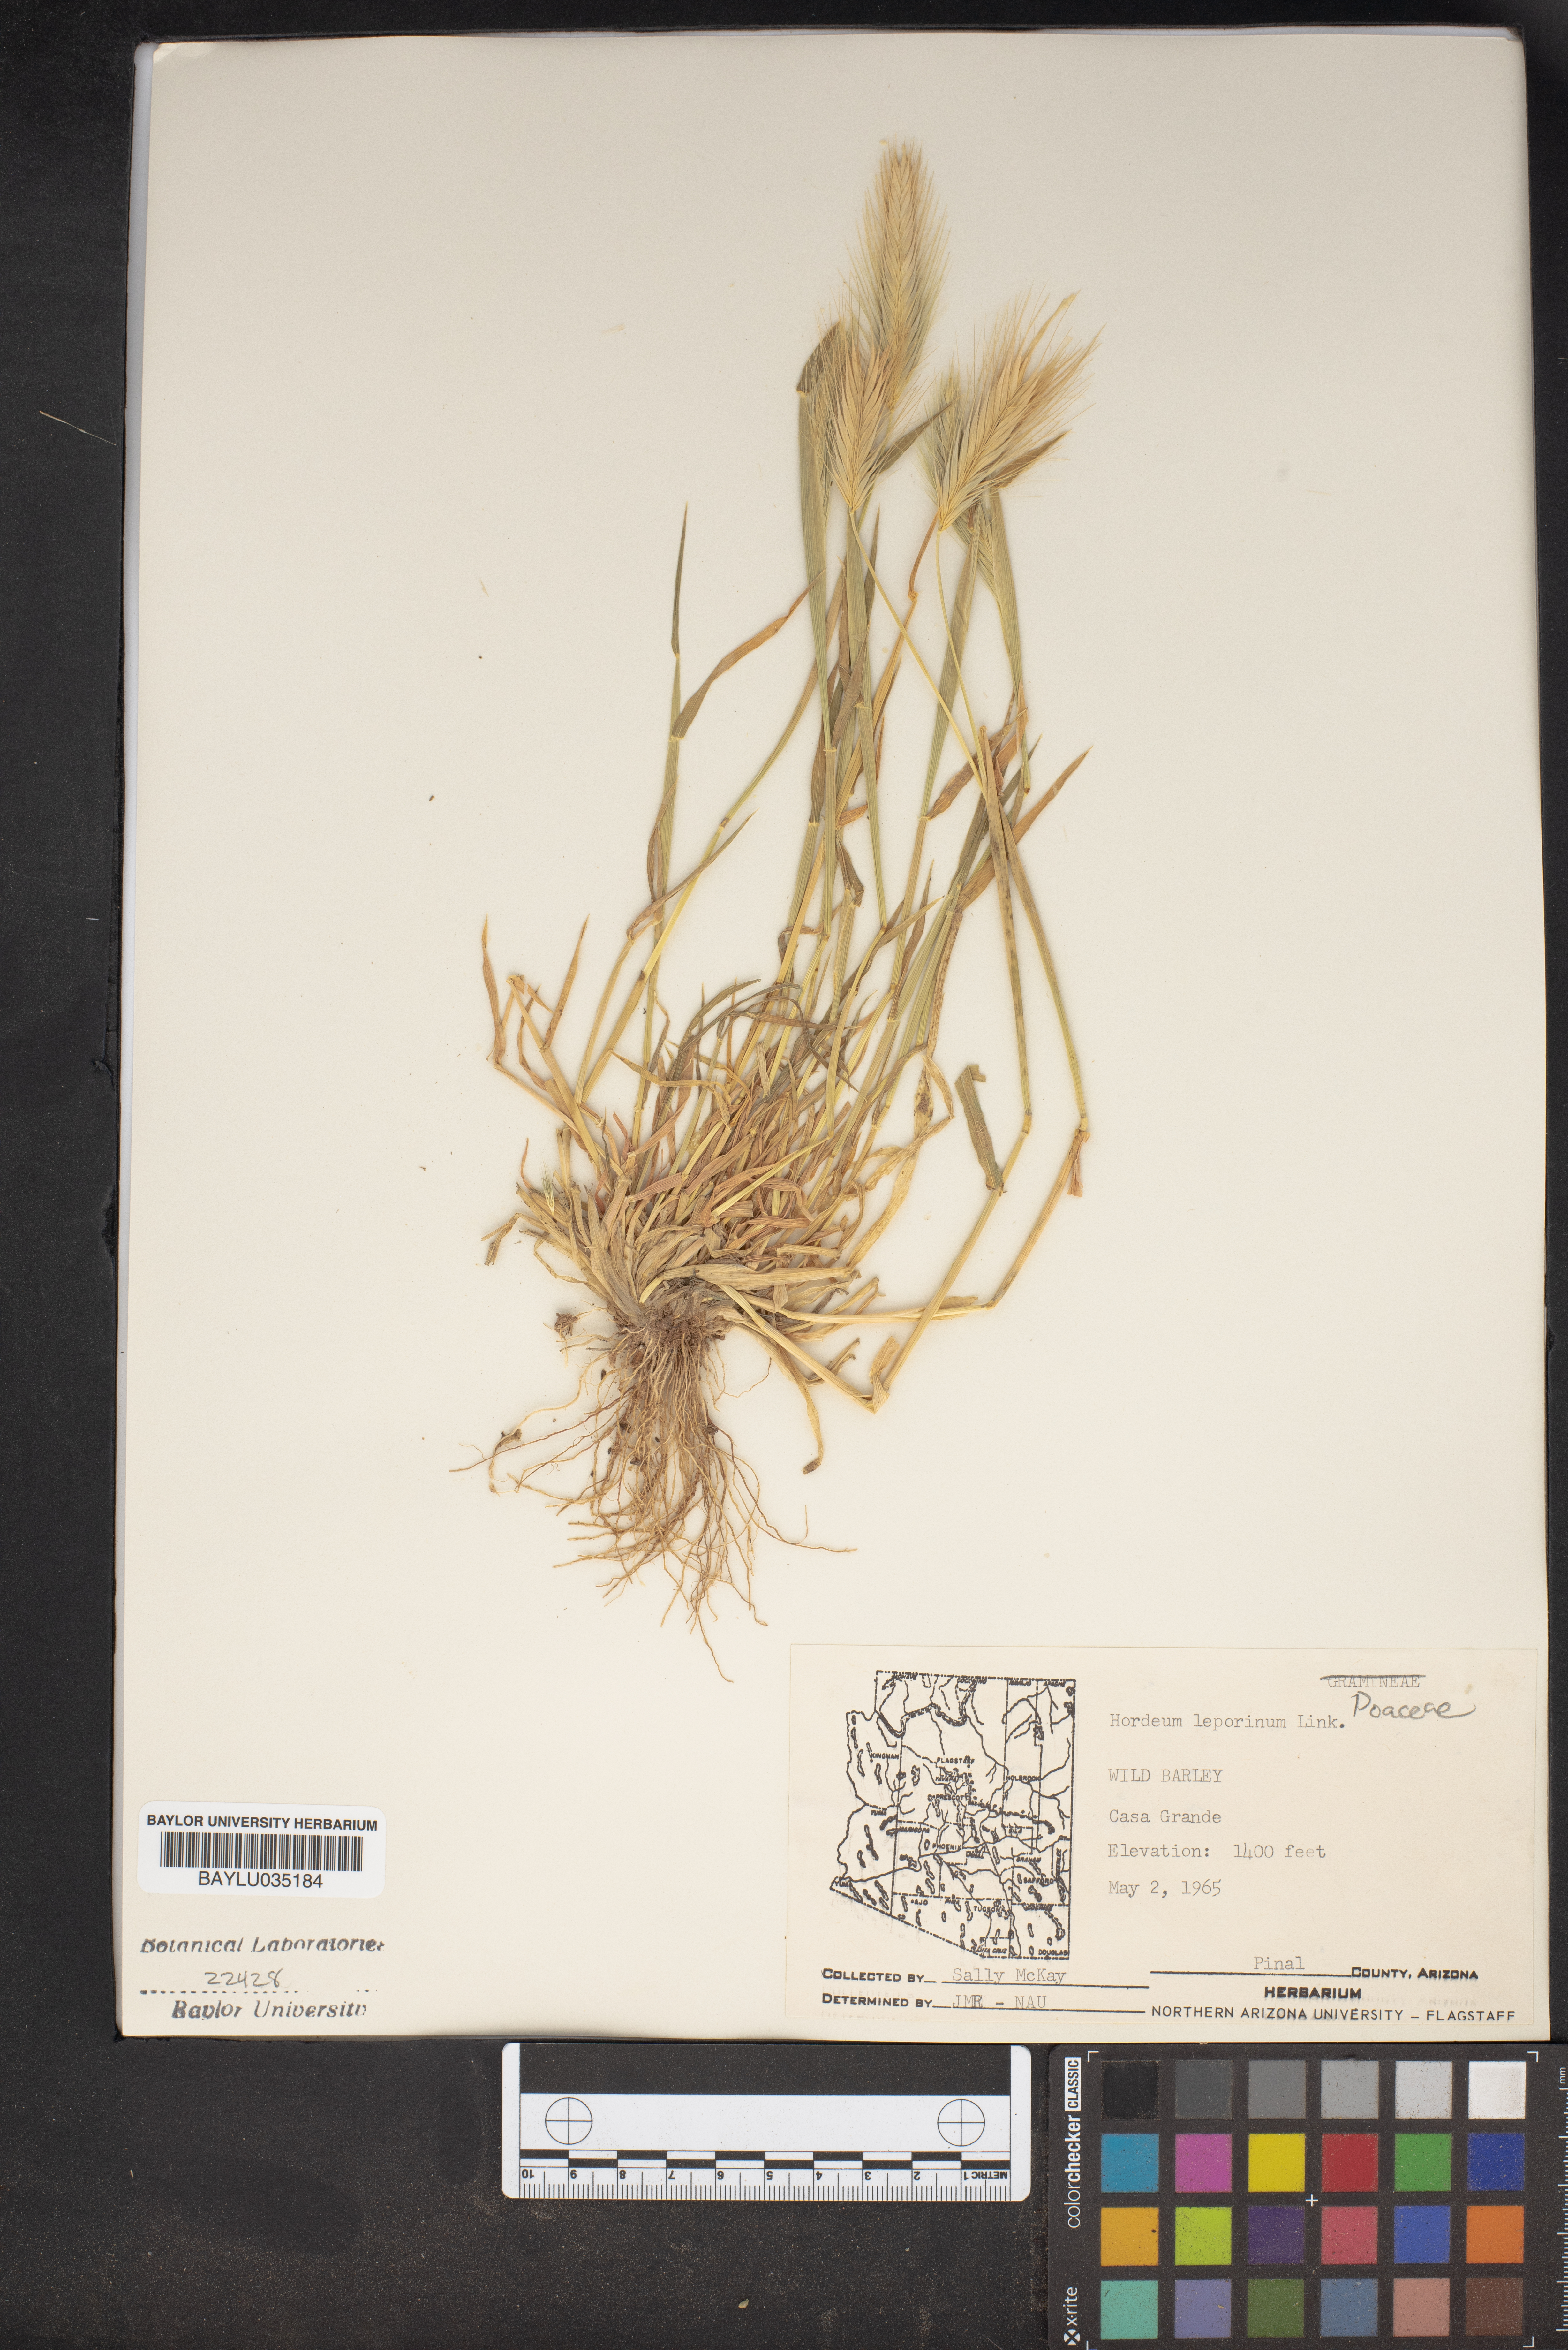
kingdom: Plantae
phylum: Tracheophyta
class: Liliopsida
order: Poales
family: Poaceae
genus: Hordeum
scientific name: Hordeum murinum
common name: Wall barley
